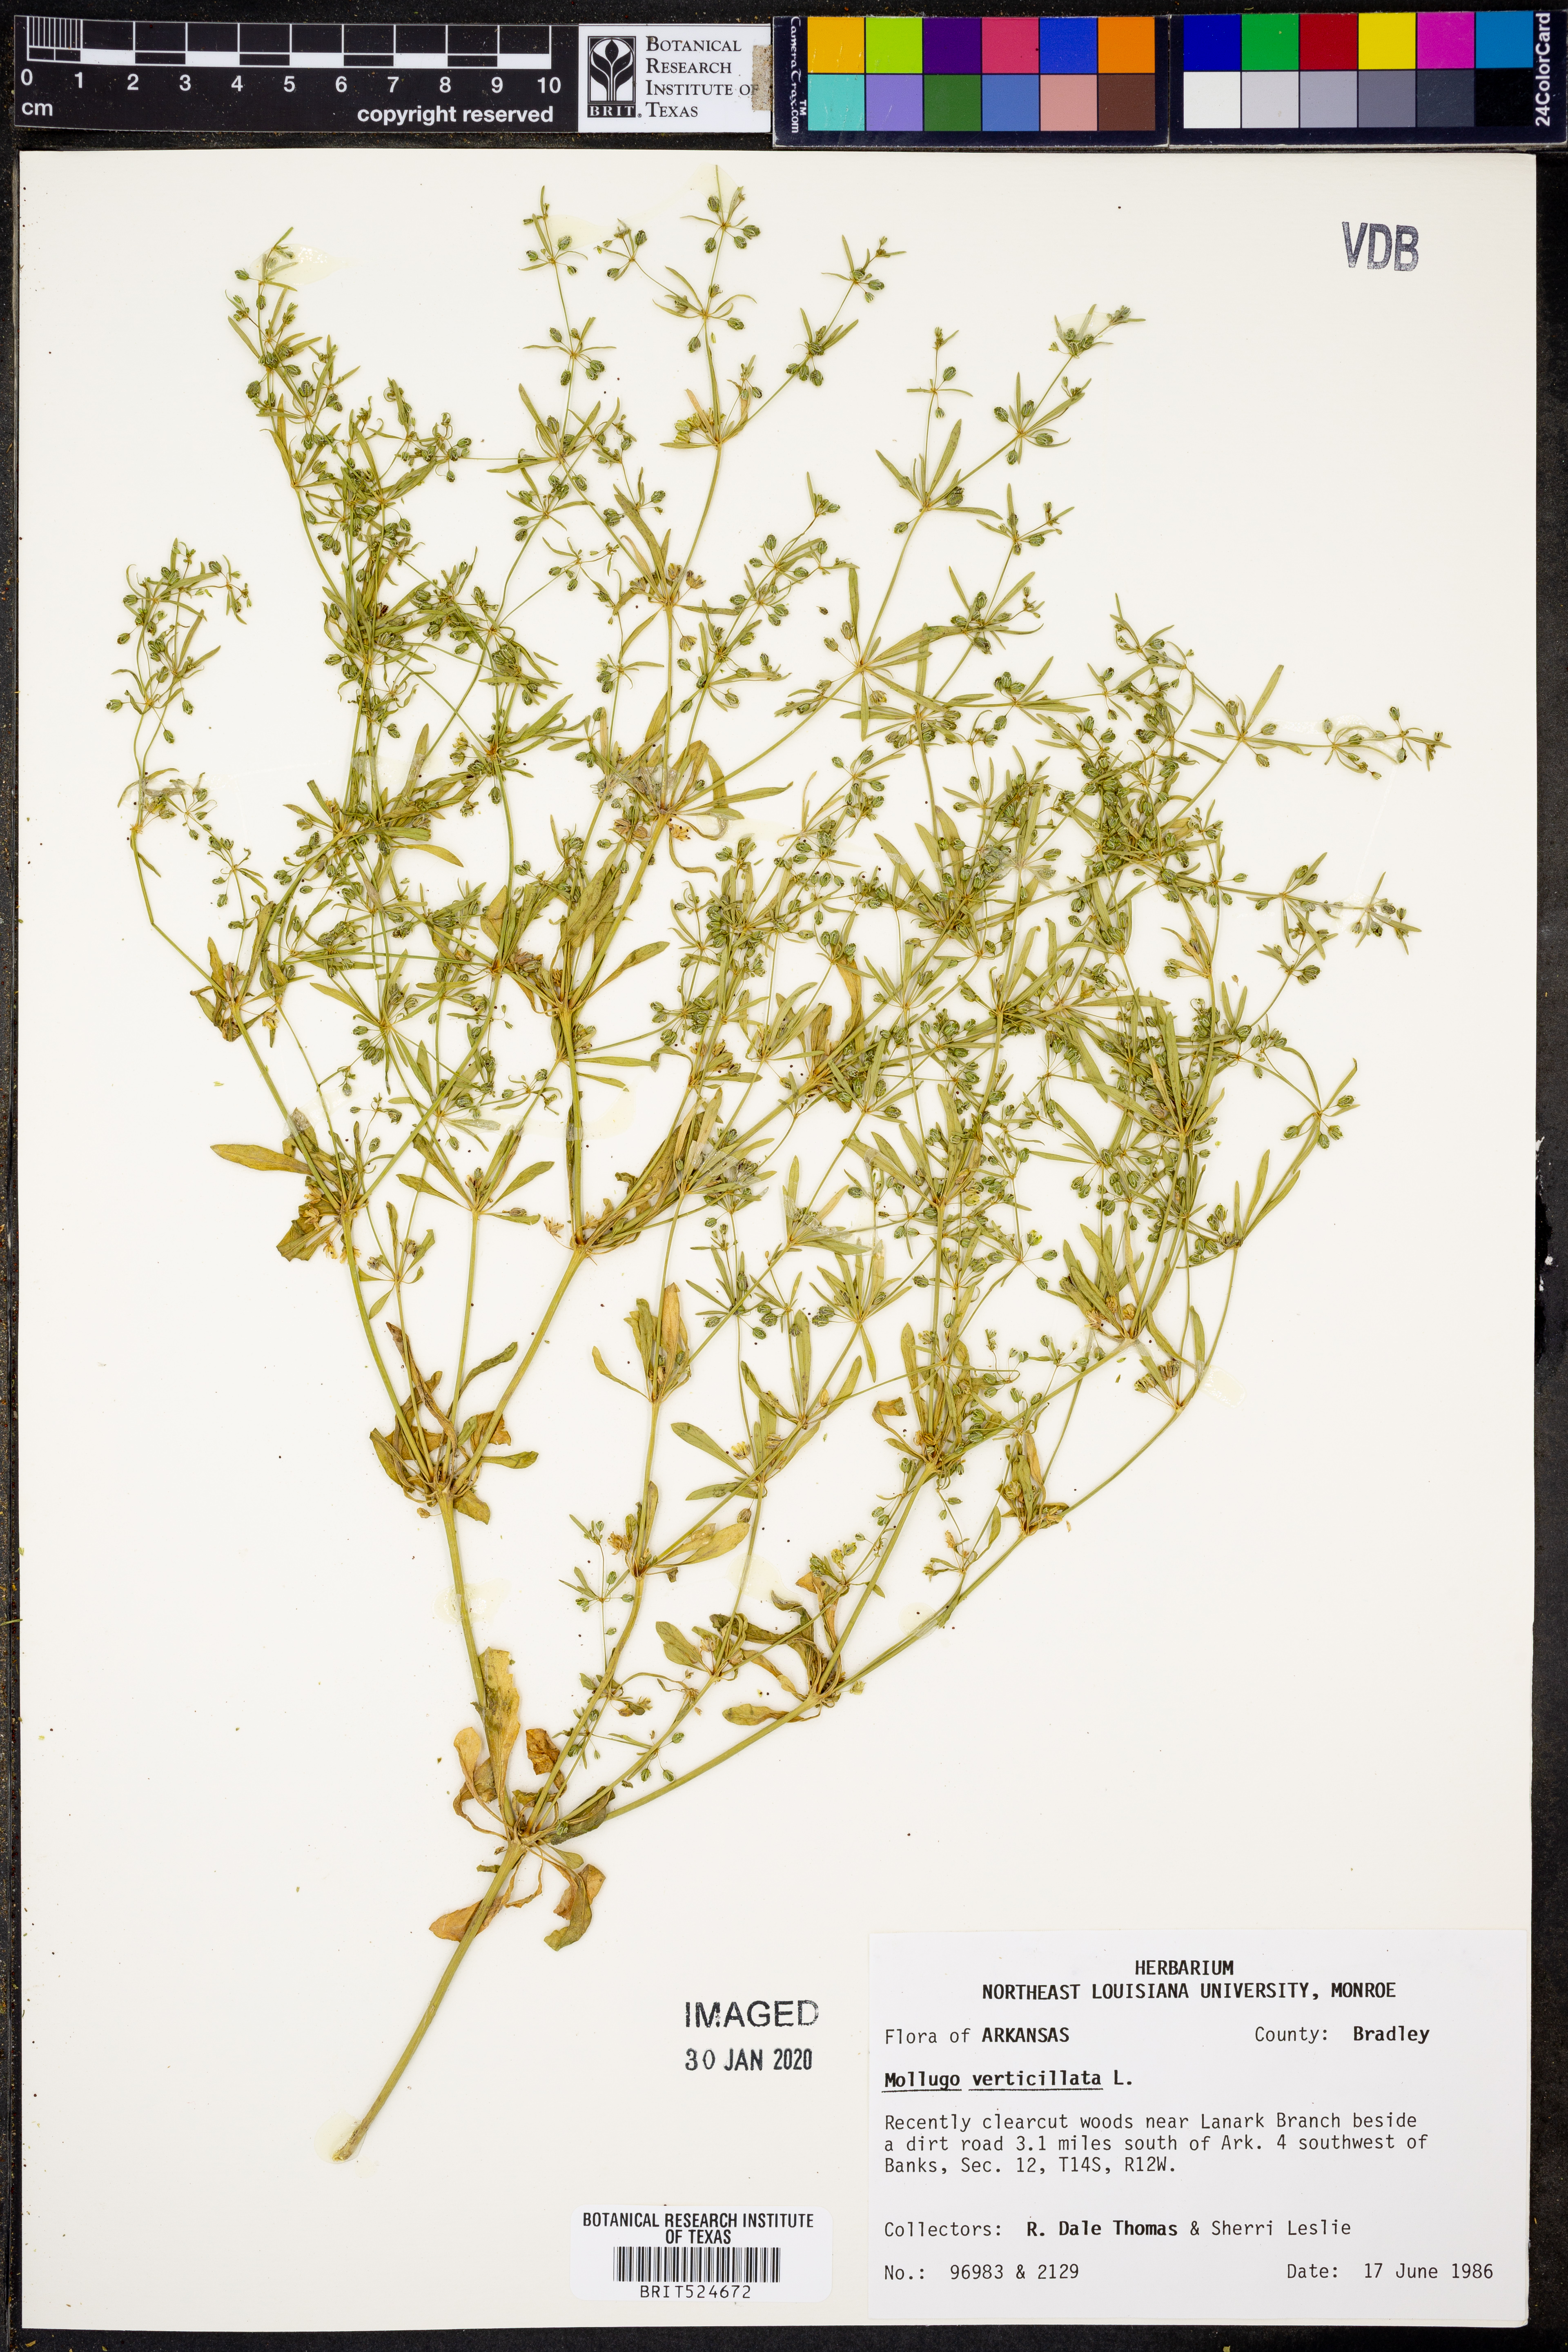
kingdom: Plantae
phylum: Tracheophyta
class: Magnoliopsida
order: Caryophyllales
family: Molluginaceae
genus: Mollugo
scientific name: Mollugo verticillata
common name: Green carpetweed
